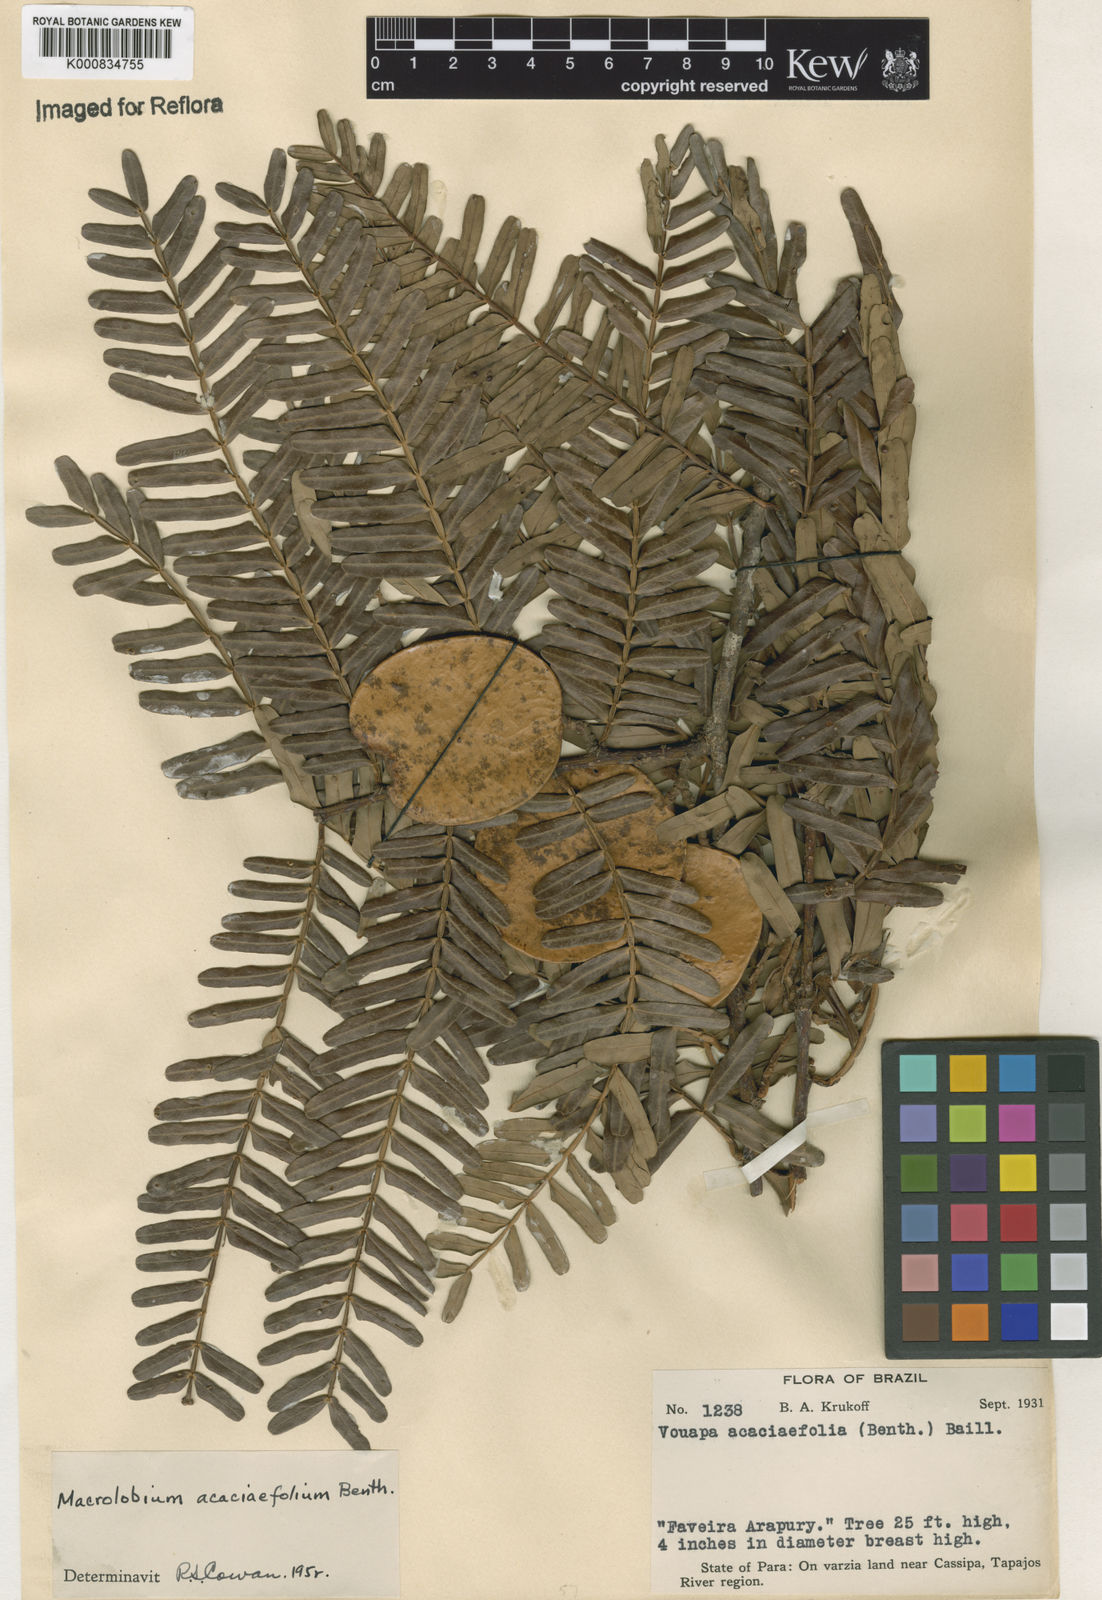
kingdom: Plantae
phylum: Tracheophyta
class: Magnoliopsida
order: Fabales
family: Fabaceae
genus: Macrolobium
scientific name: Macrolobium acaciifolium
